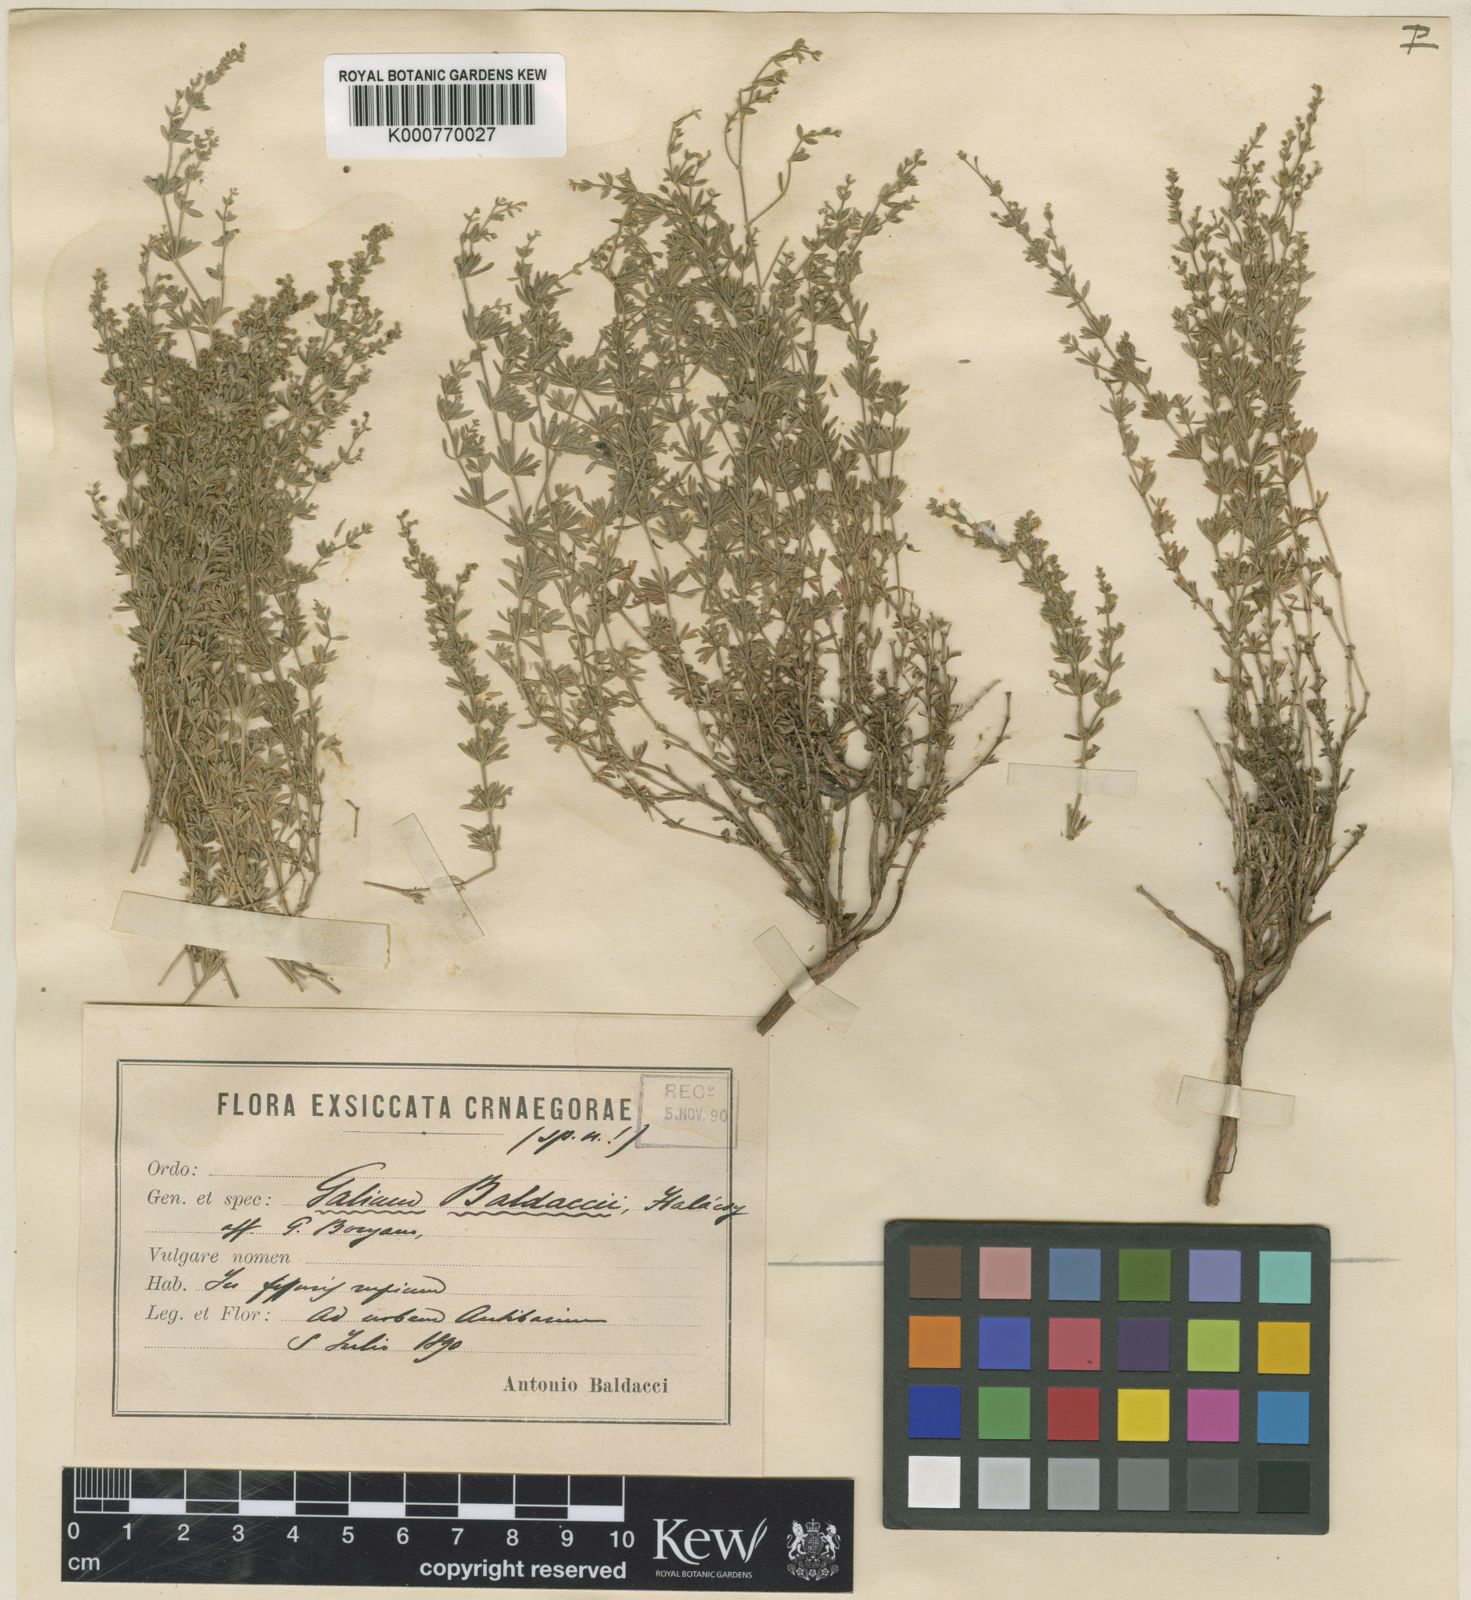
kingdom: Plantae
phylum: Tracheophyta
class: Magnoliopsida
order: Gentianales
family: Rubiaceae
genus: Asperula
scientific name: Asperula
